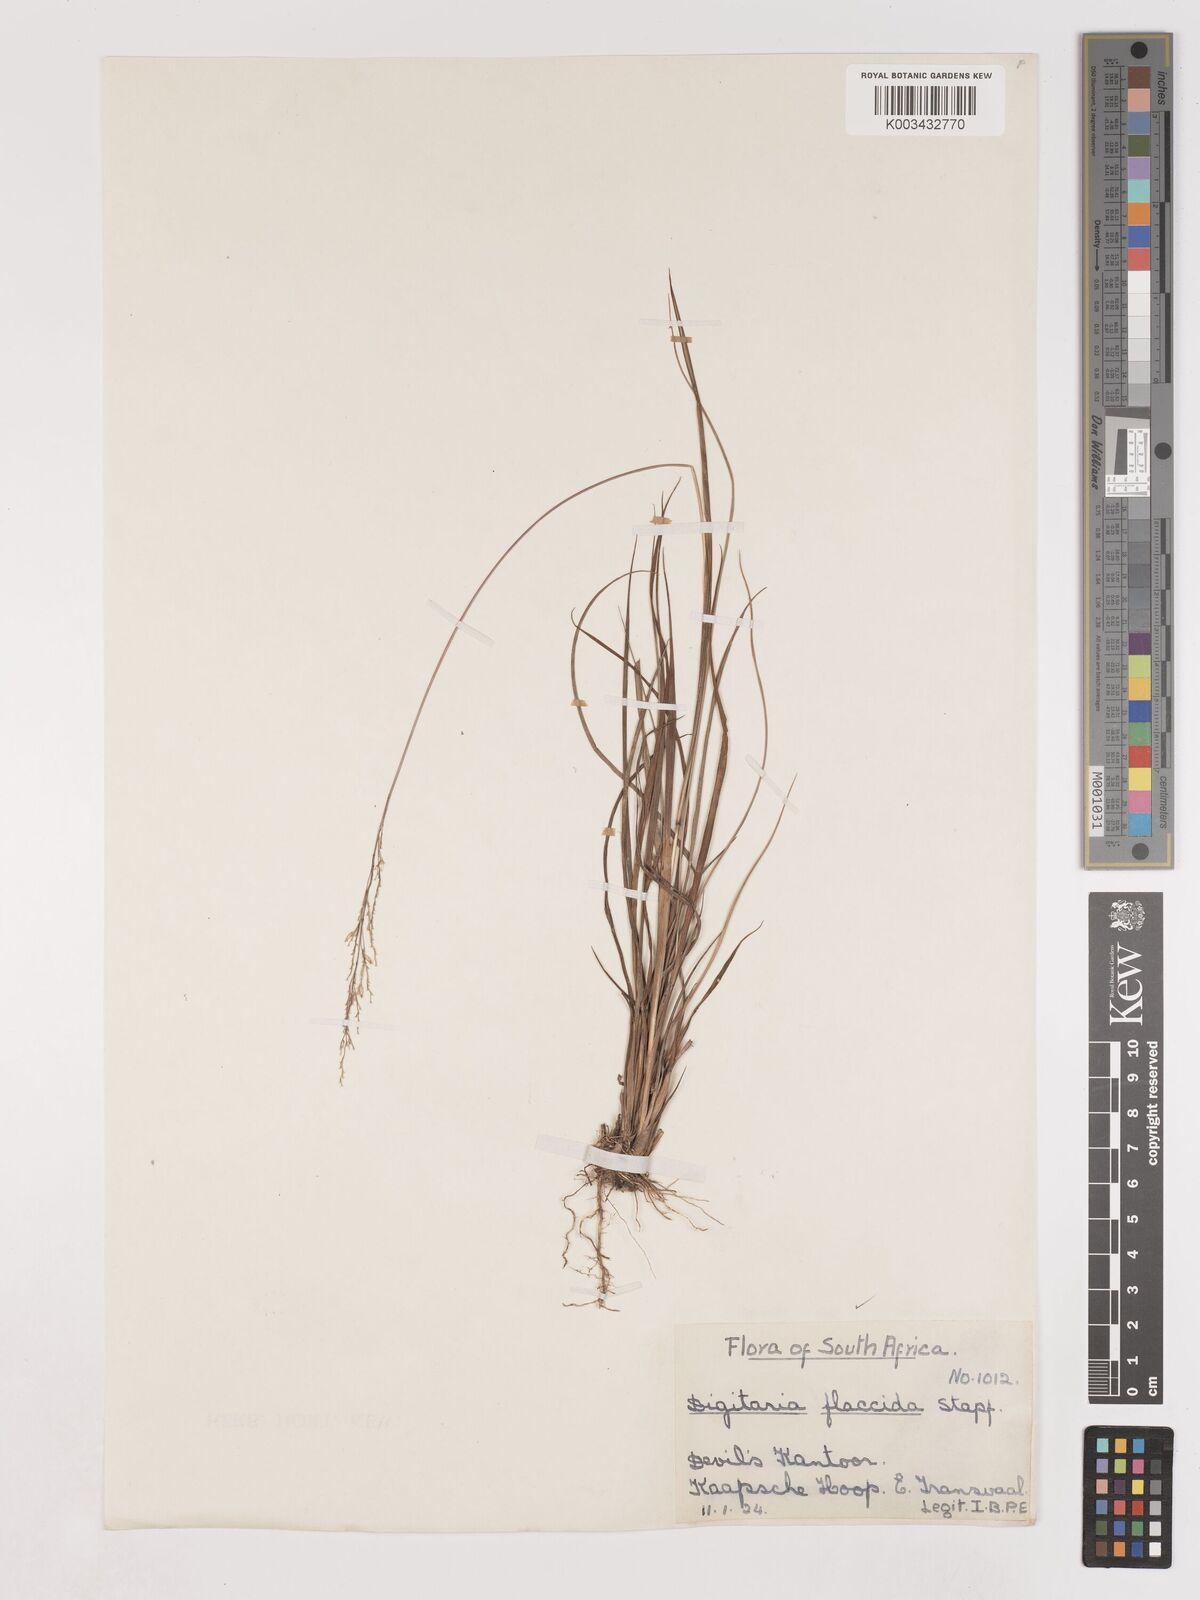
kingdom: Plantae
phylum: Tracheophyta
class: Liliopsida
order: Poales
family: Poaceae
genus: Digitaria
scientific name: Digitaria flaccida
